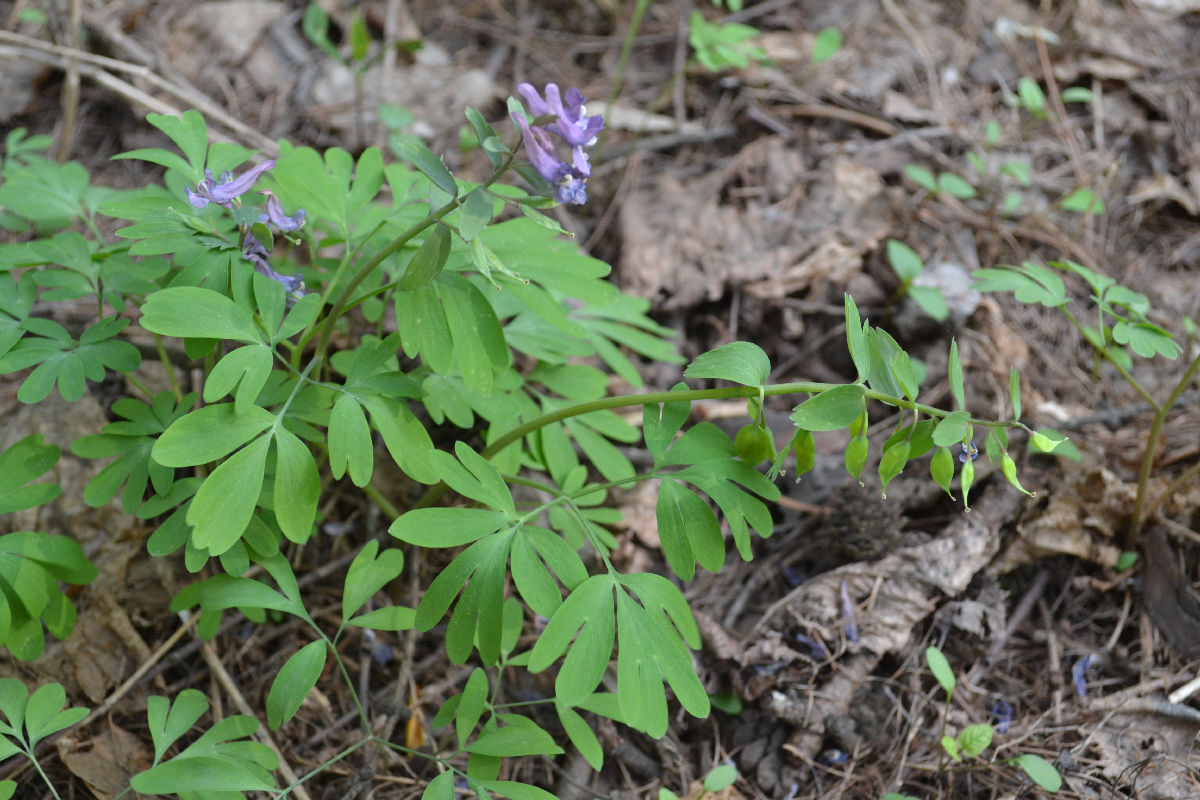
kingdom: Plantae
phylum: Tracheophyta
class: Magnoliopsida
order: Ranunculales
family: Papaveraceae
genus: Corydalis
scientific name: Corydalis solida
